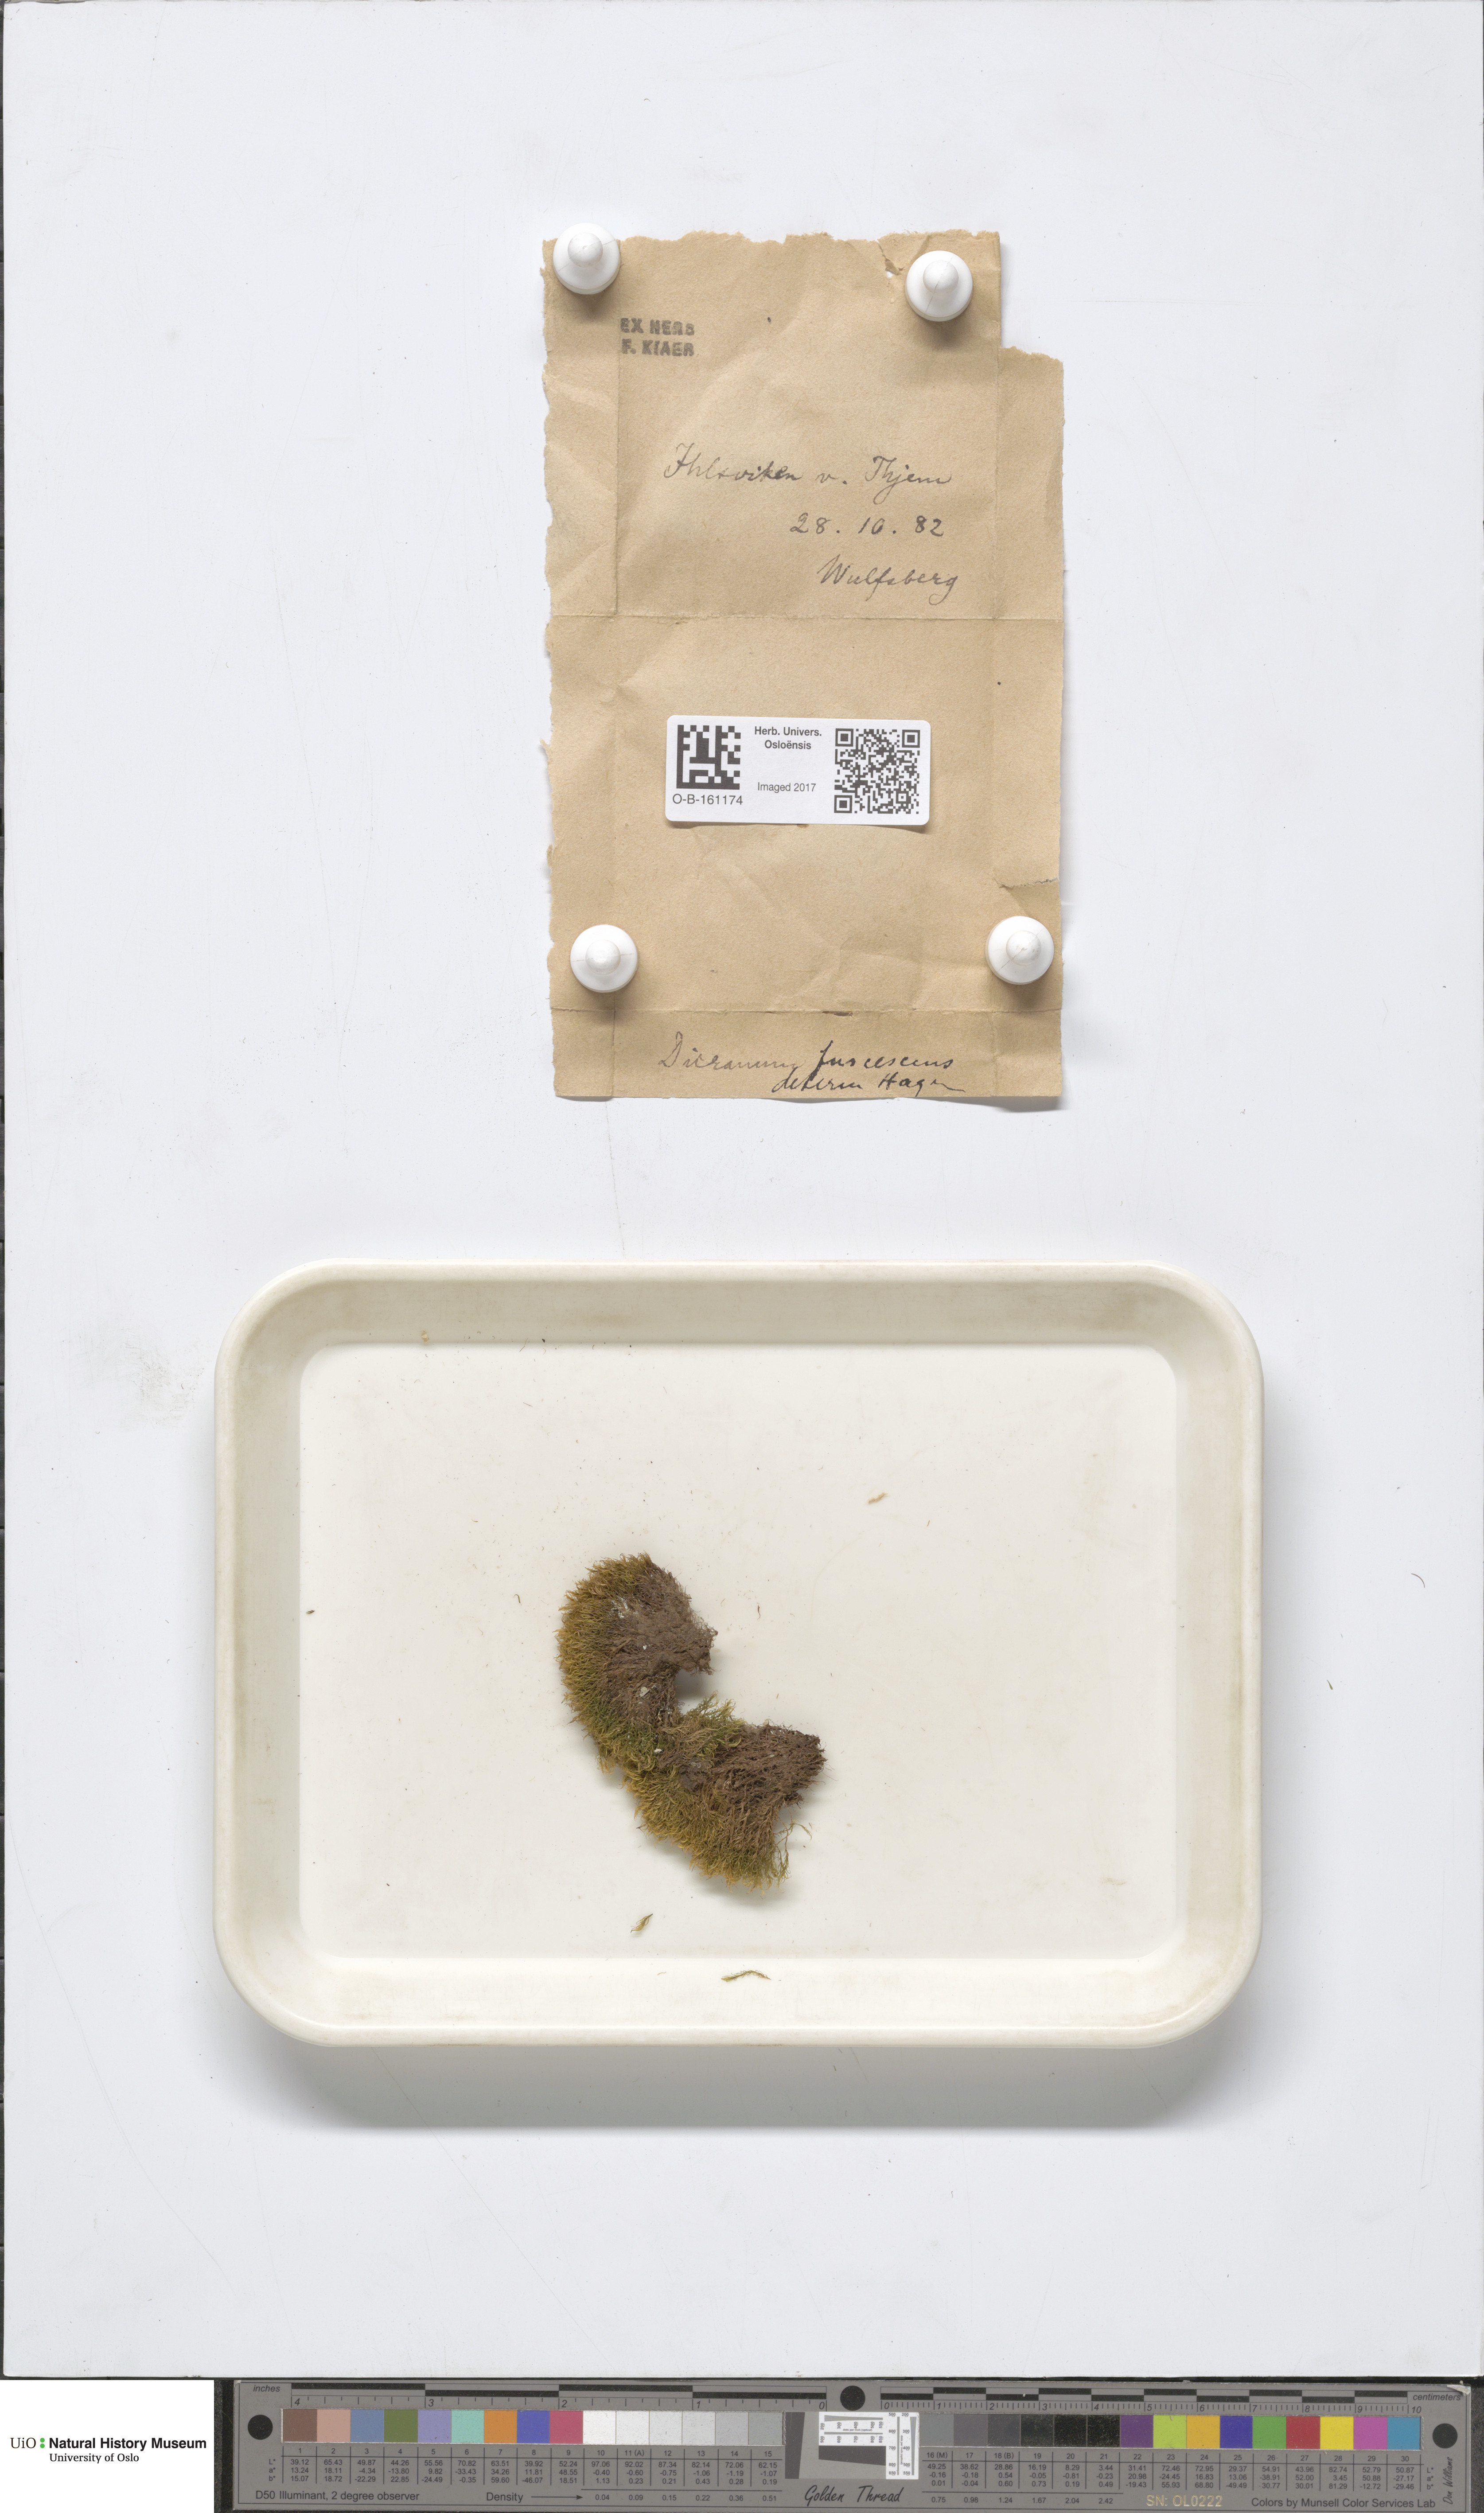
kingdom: Plantae
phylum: Bryophyta
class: Bryopsida
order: Dicranales
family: Dicranaceae
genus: Dicranum
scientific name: Dicranum fuscescens
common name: Curly heron's-bill moss
